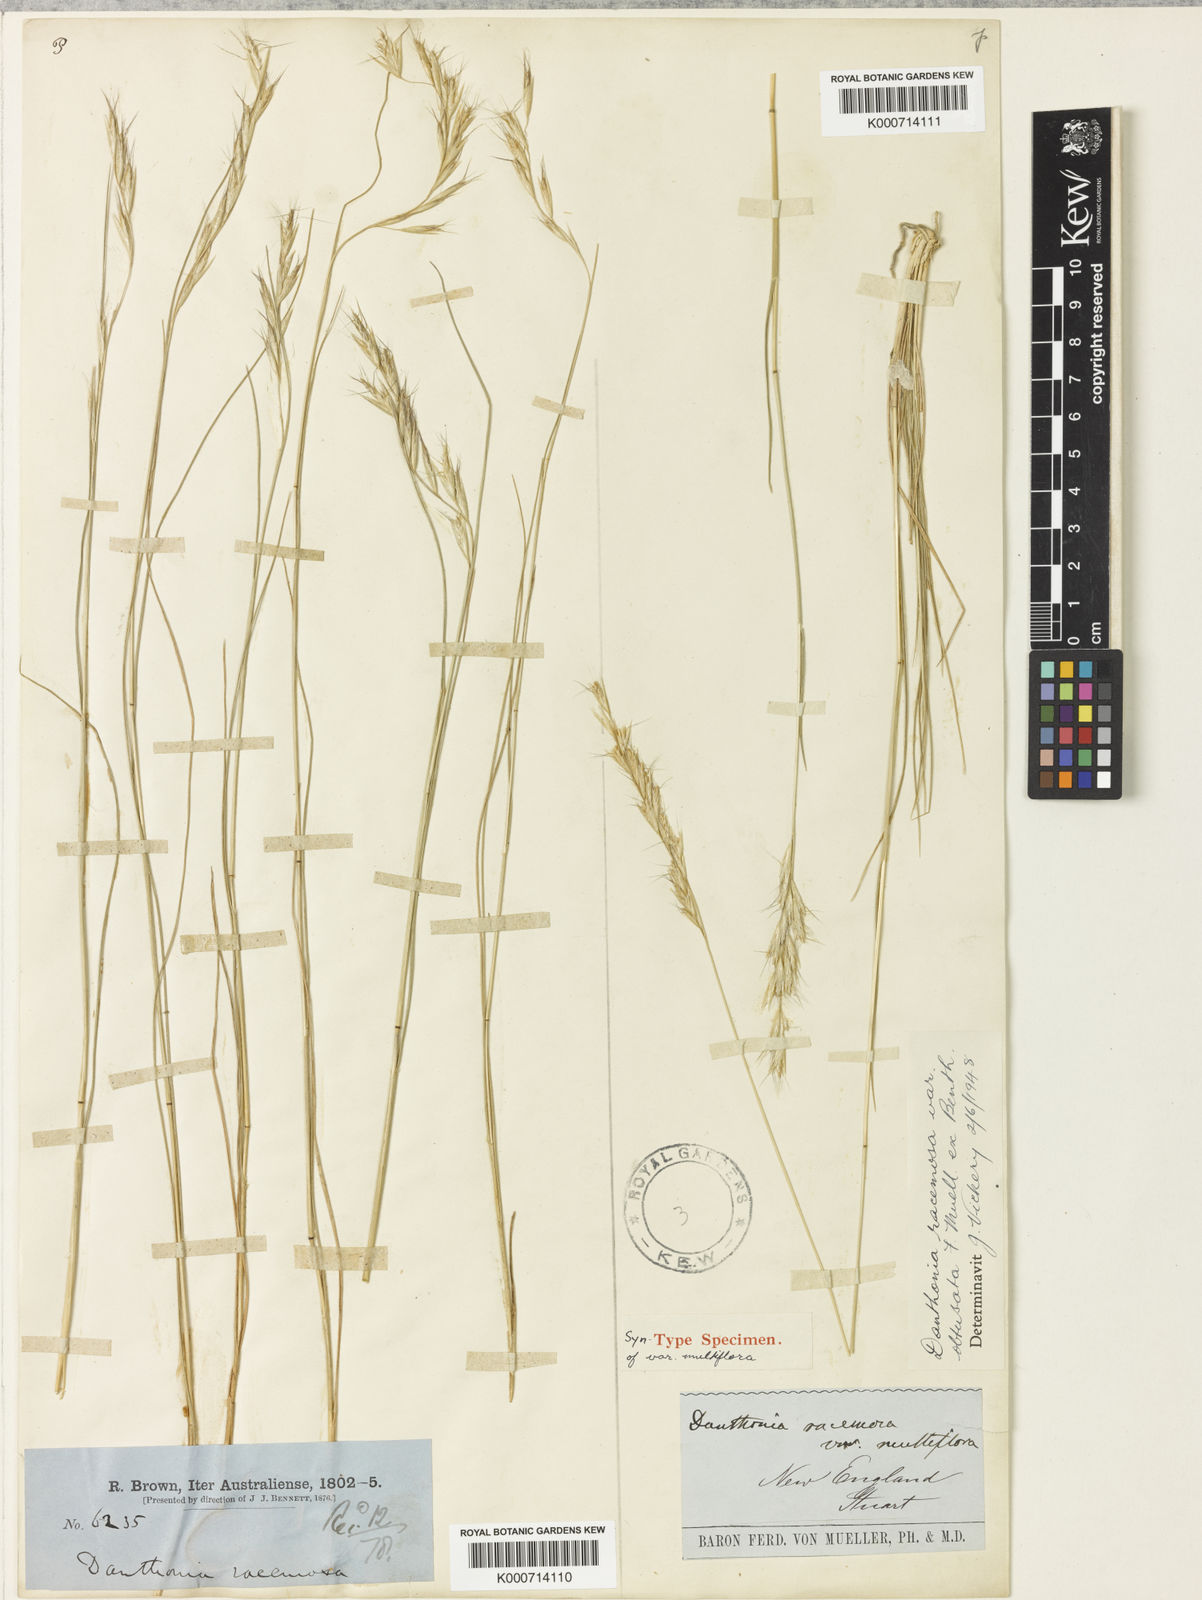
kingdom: Plantae
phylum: Tracheophyta
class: Liliopsida
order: Poales
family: Poaceae
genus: Rytidosperma
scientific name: Rytidosperma racemosum
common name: Wallaby-grass
